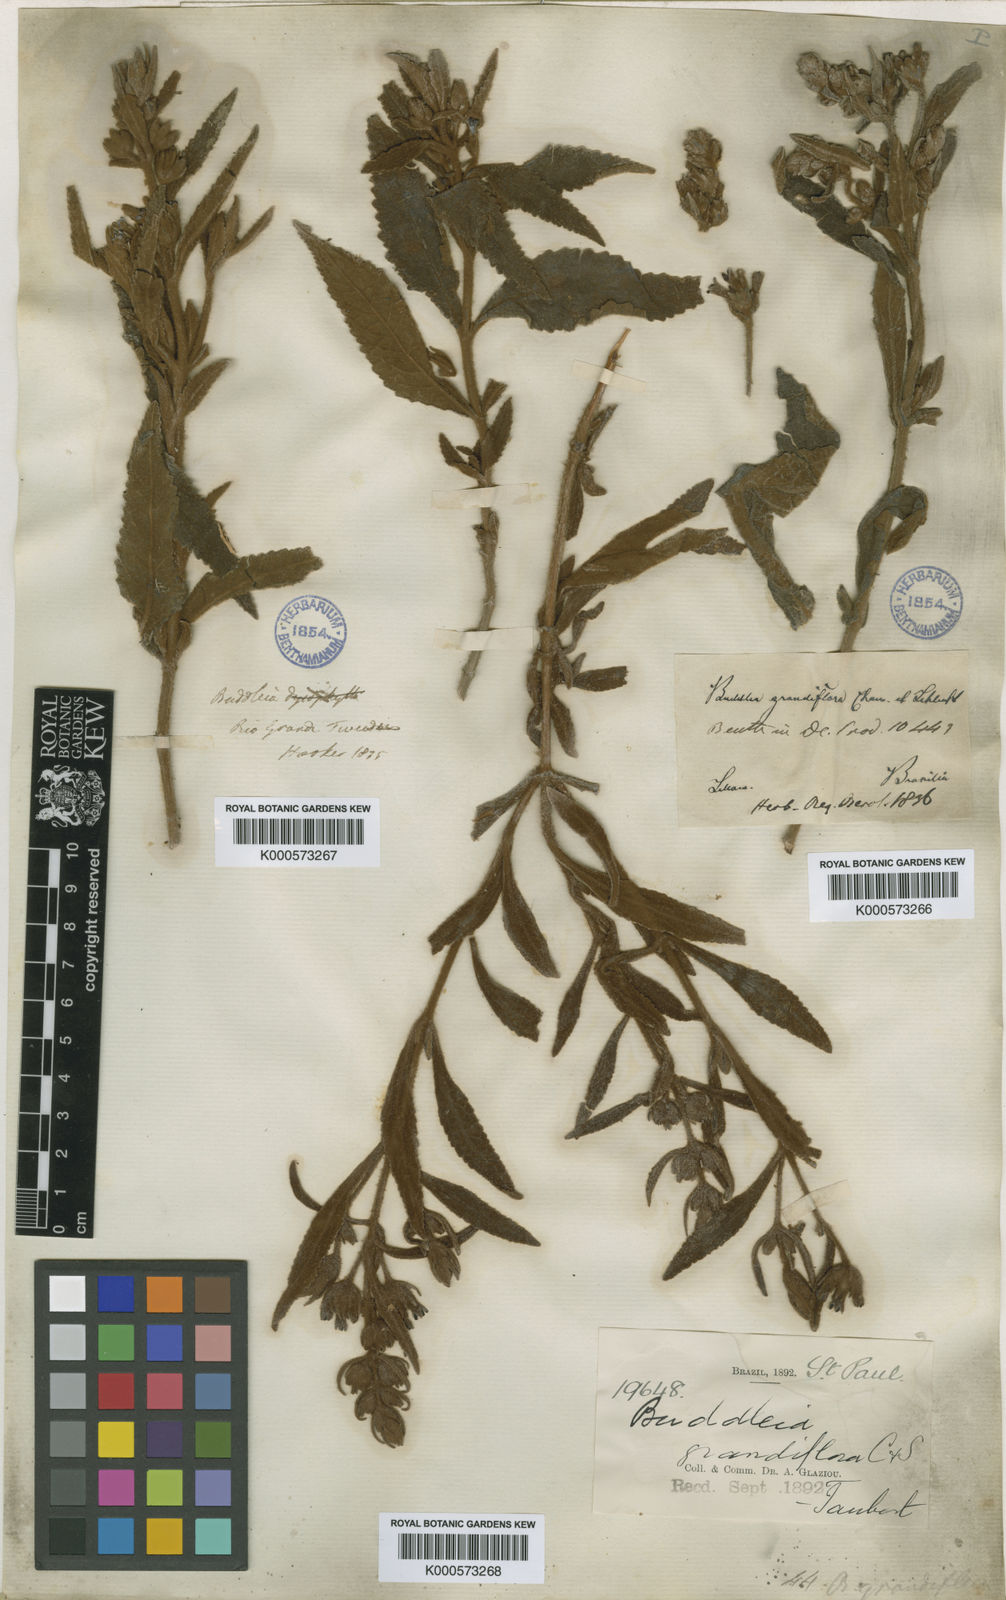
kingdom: Plantae
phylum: Tracheophyta
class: Magnoliopsida
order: Lamiales
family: Scrophulariaceae
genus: Buddleja
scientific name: Buddleja grandiflora
